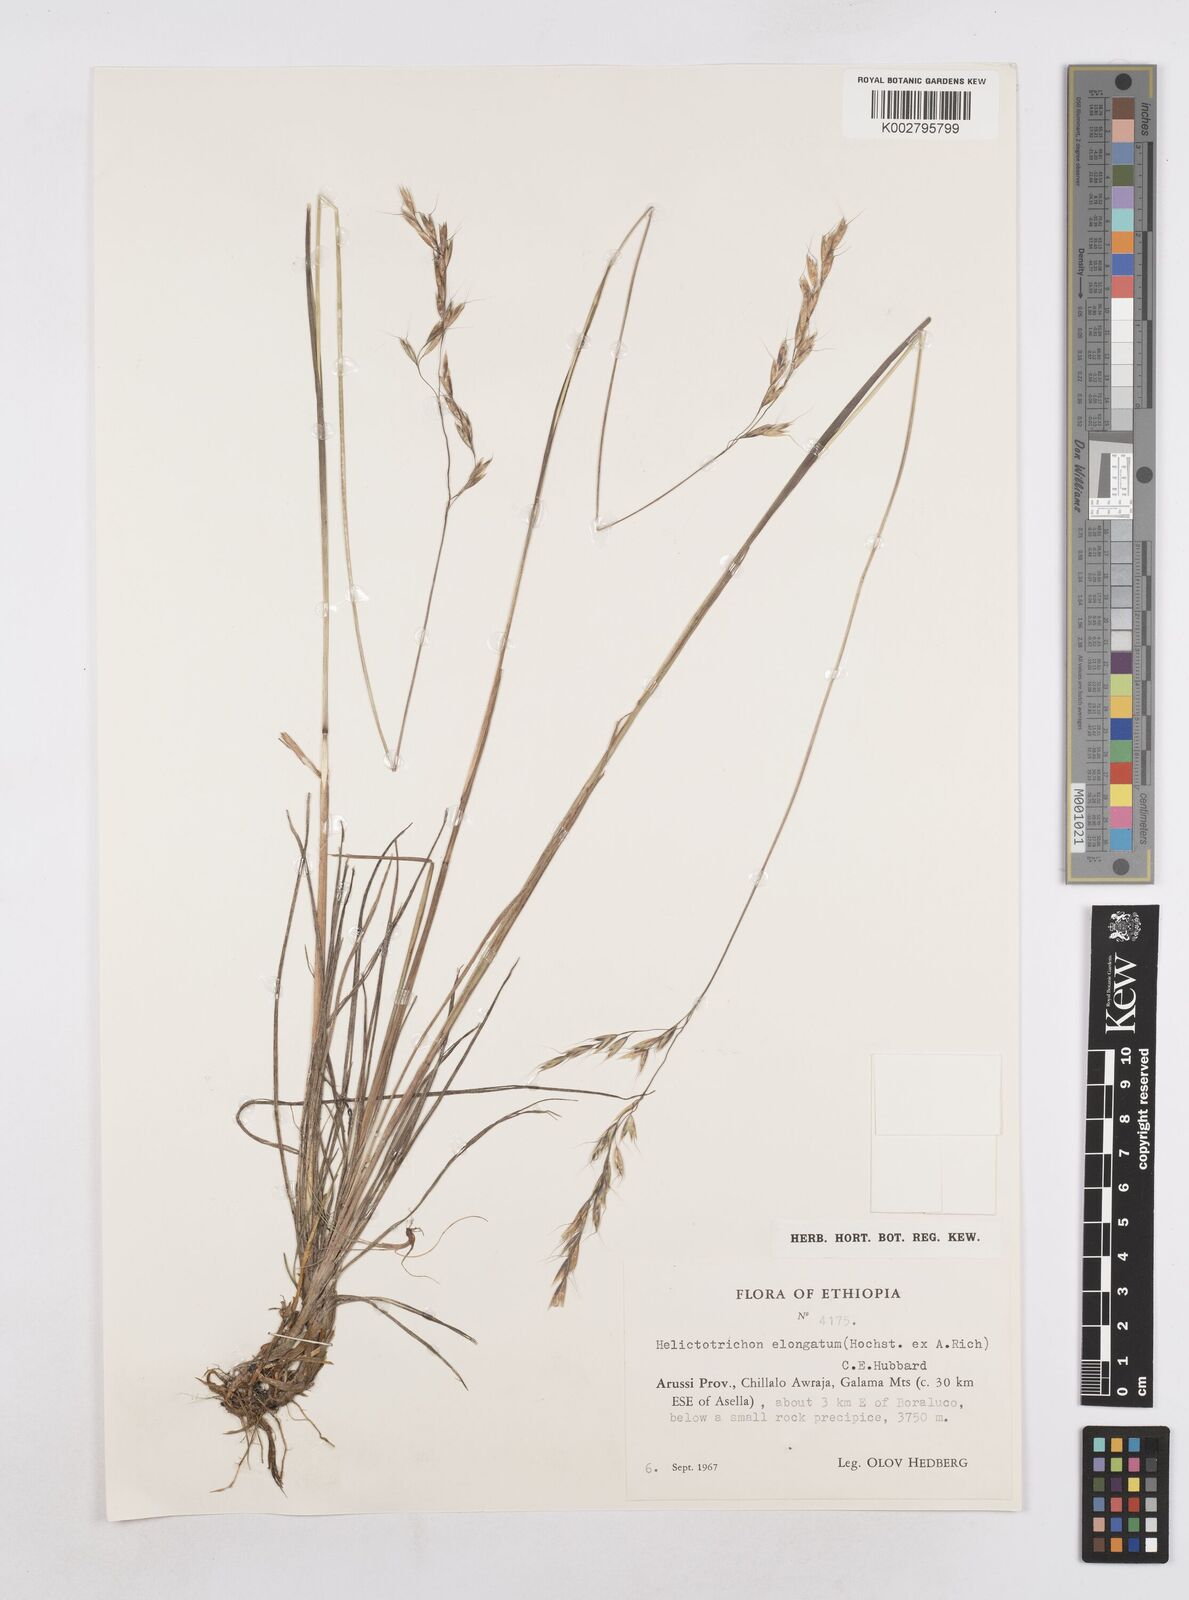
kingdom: Plantae
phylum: Tracheophyta
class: Liliopsida
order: Poales
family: Poaceae
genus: Trisetopsis
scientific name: Trisetopsis elongata
